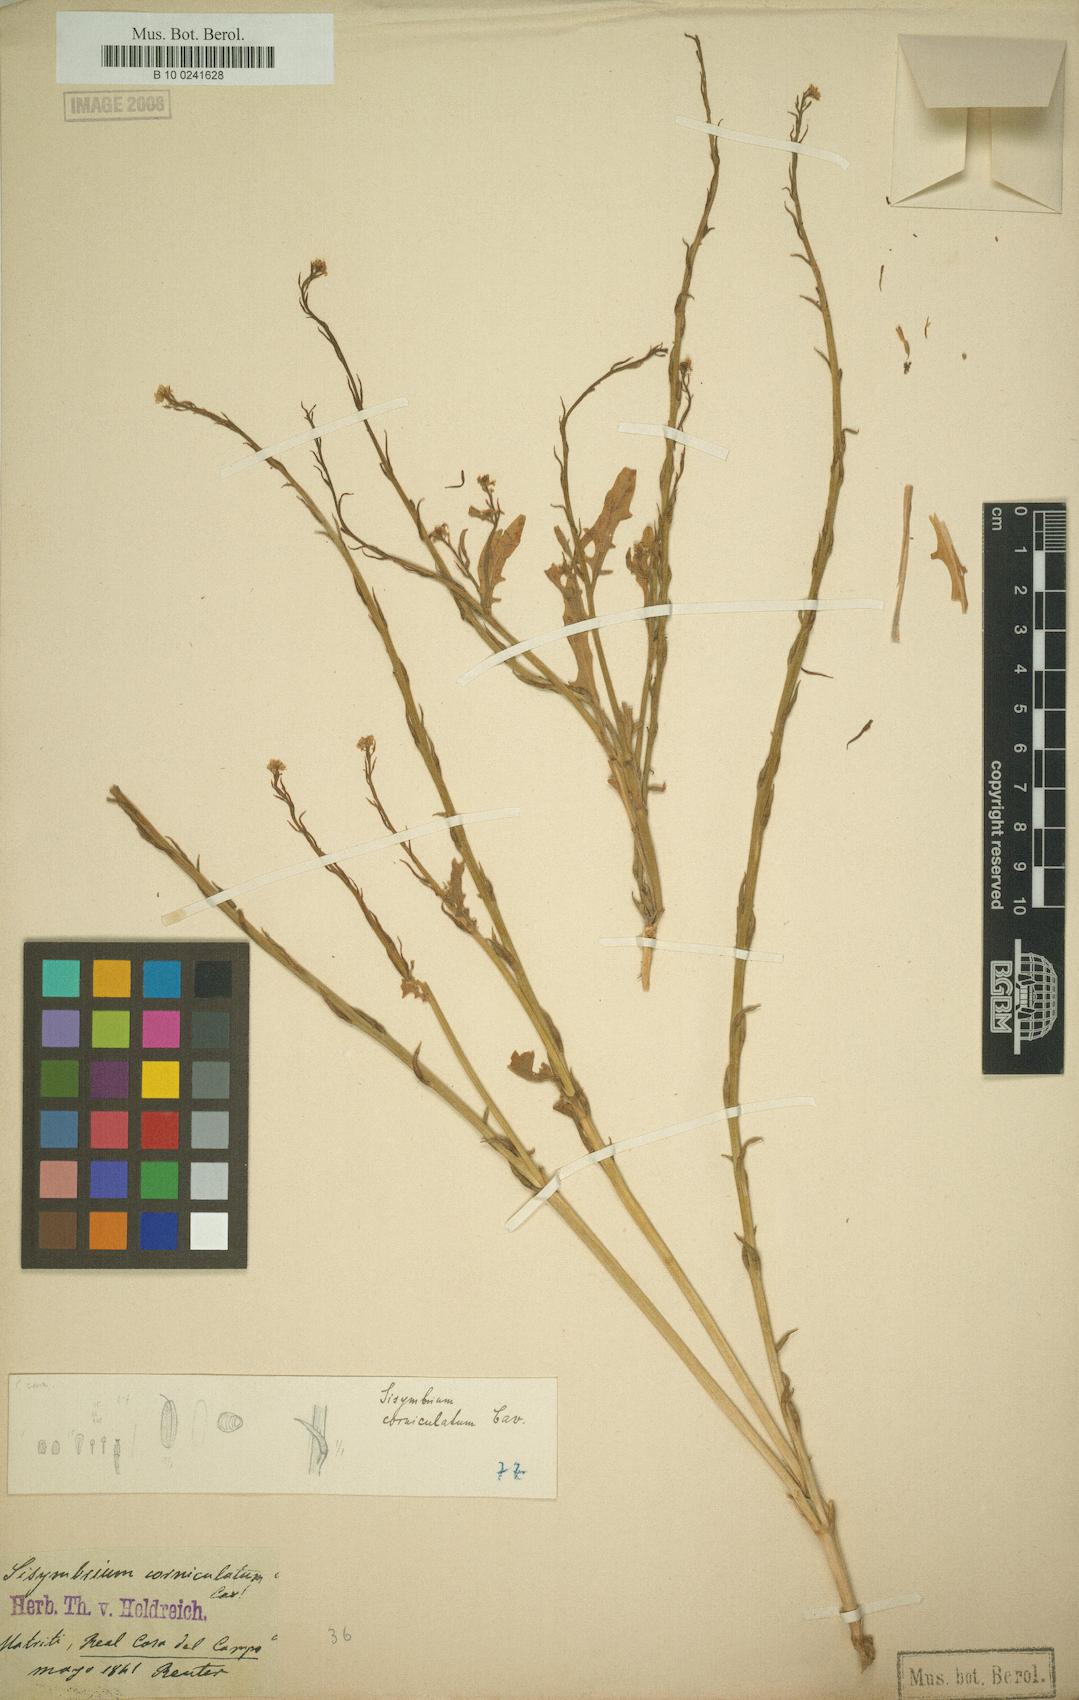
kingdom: Plantae
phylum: Tracheophyta
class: Magnoliopsida
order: Brassicales
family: Brassicaceae
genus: Sisymbrium
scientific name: Sisymbrium cavanillesianum
